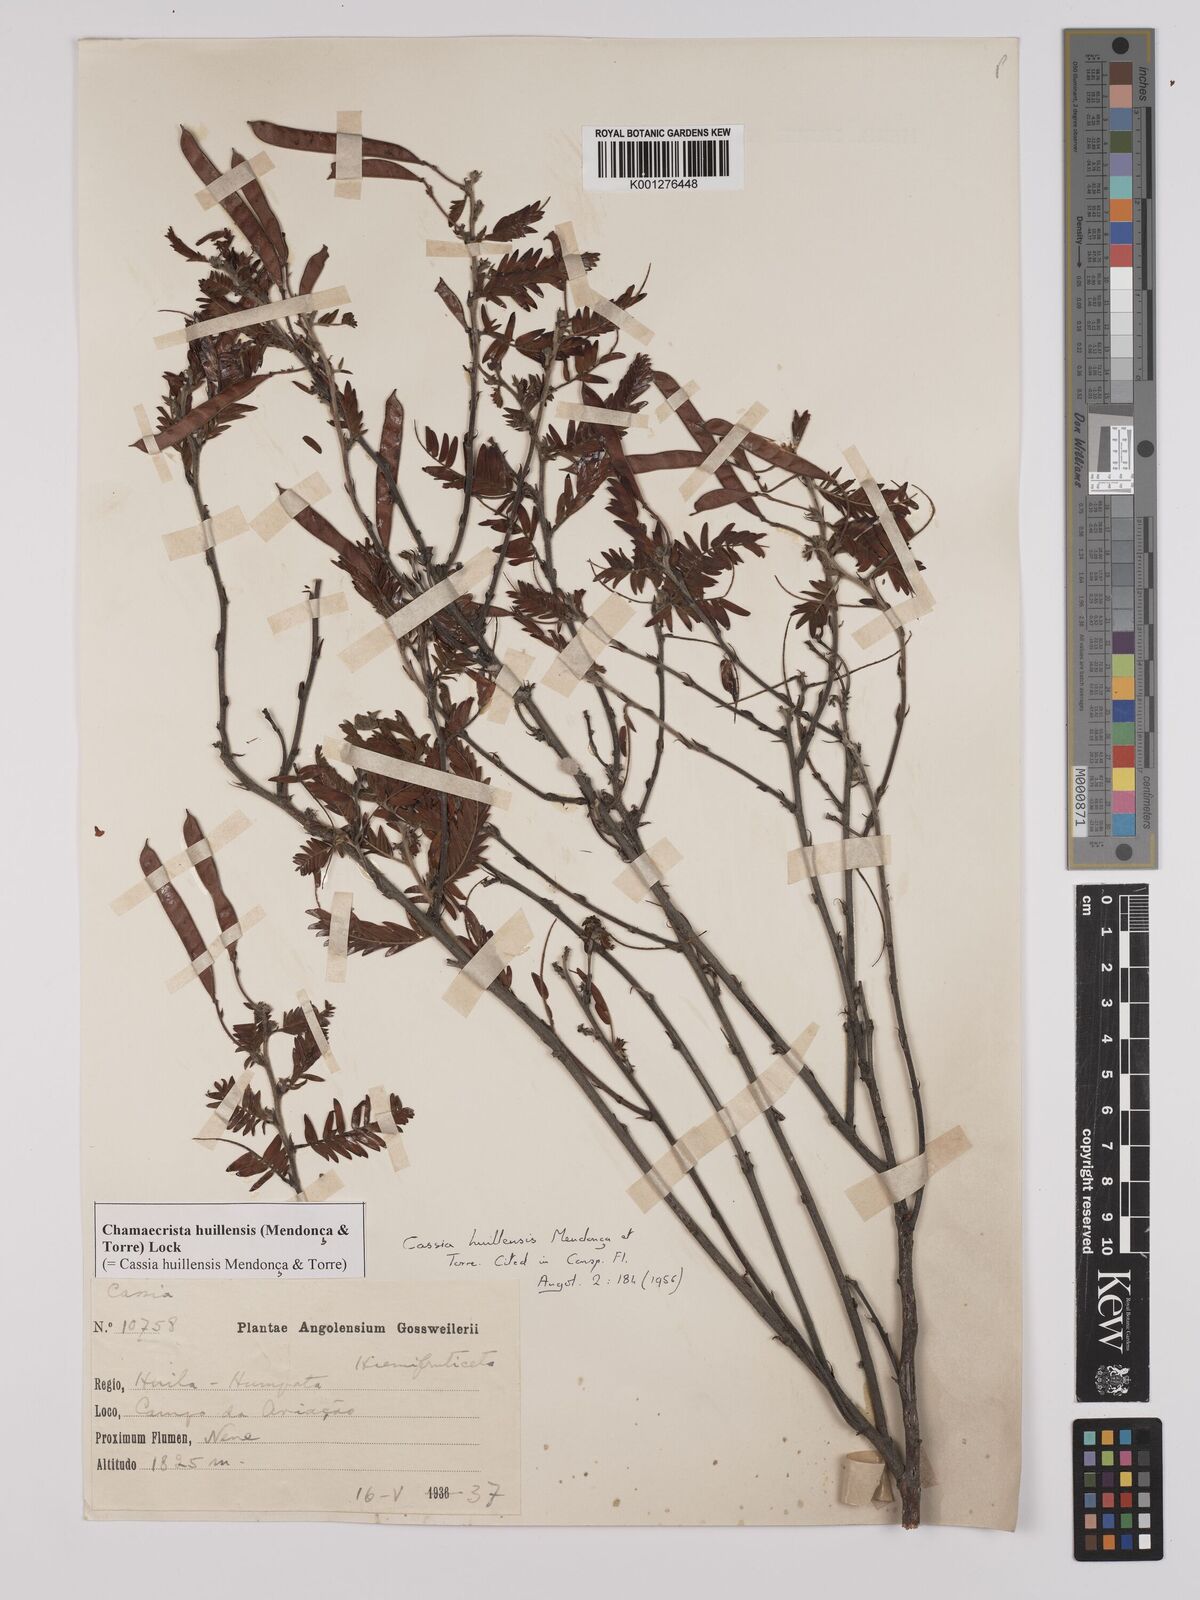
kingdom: Plantae
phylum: Tracheophyta
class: Magnoliopsida
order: Fabales
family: Fabaceae
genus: Chamaecrista
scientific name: Chamaecrista
